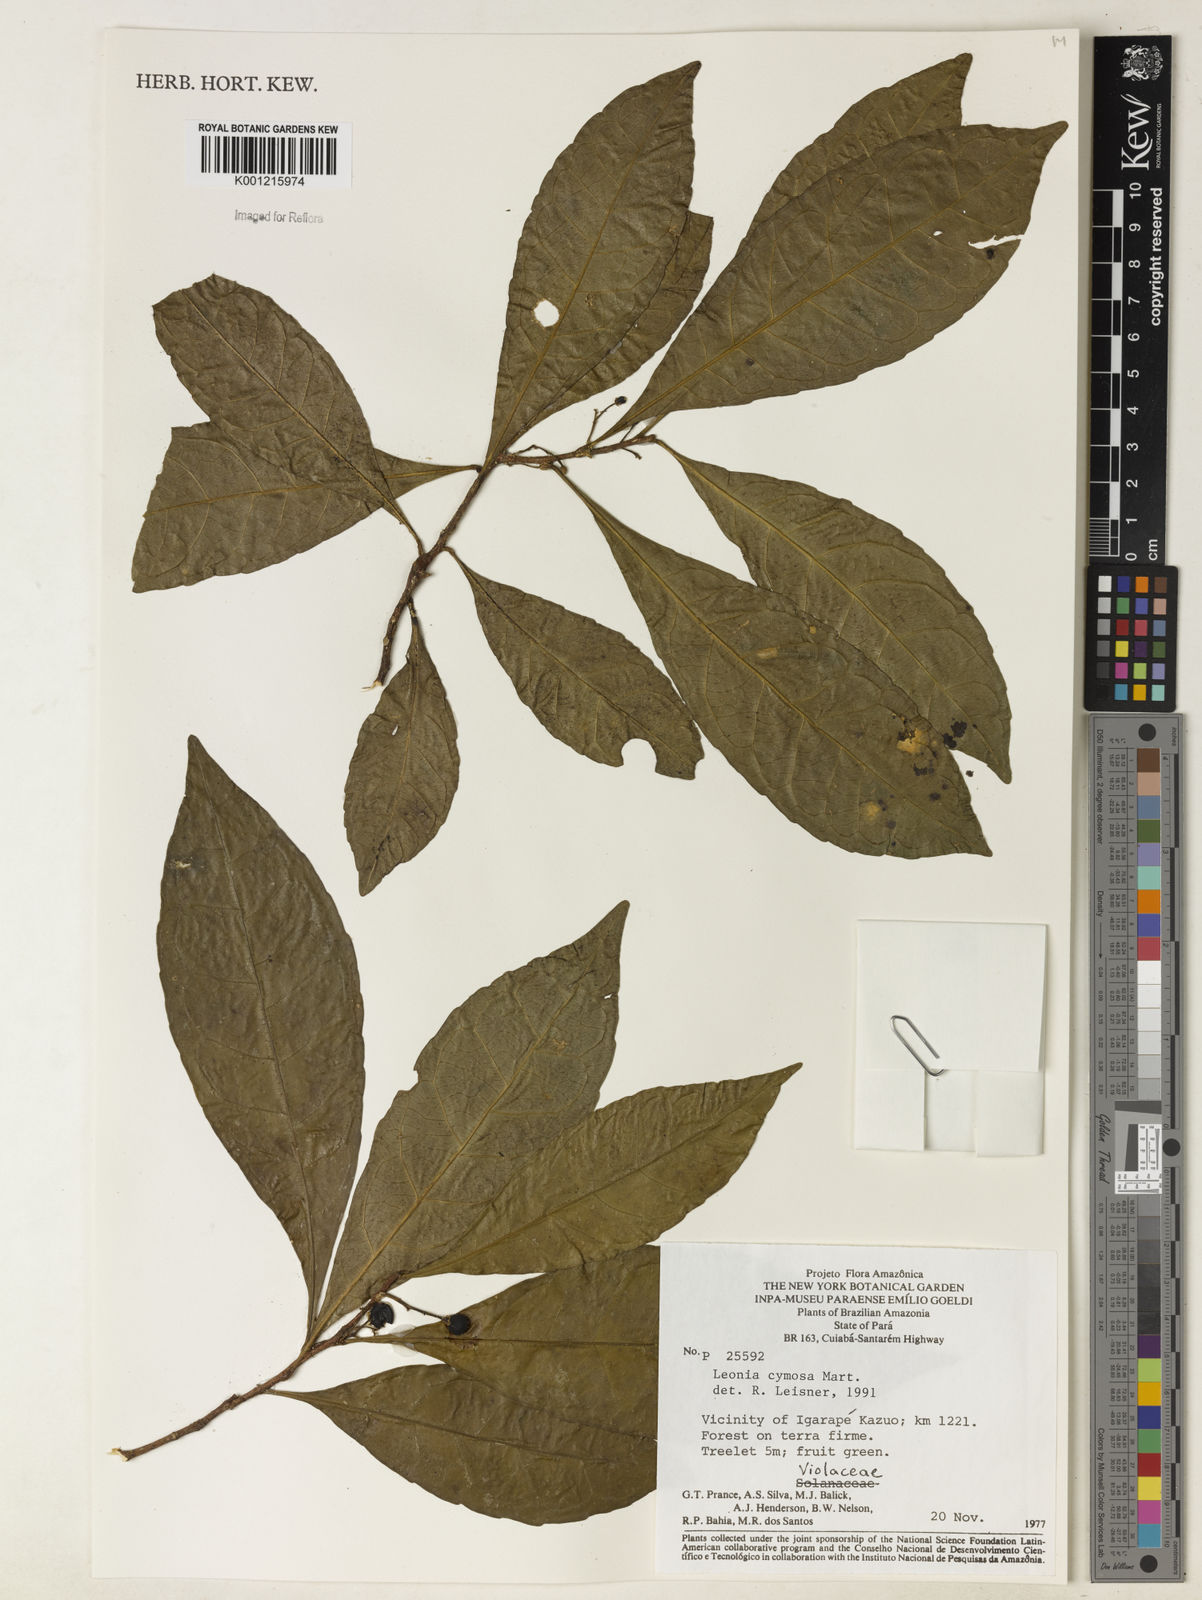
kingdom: Plantae
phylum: Tracheophyta
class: Magnoliopsida
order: Malpighiales
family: Violaceae
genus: Leonia
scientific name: Leonia cymosa
